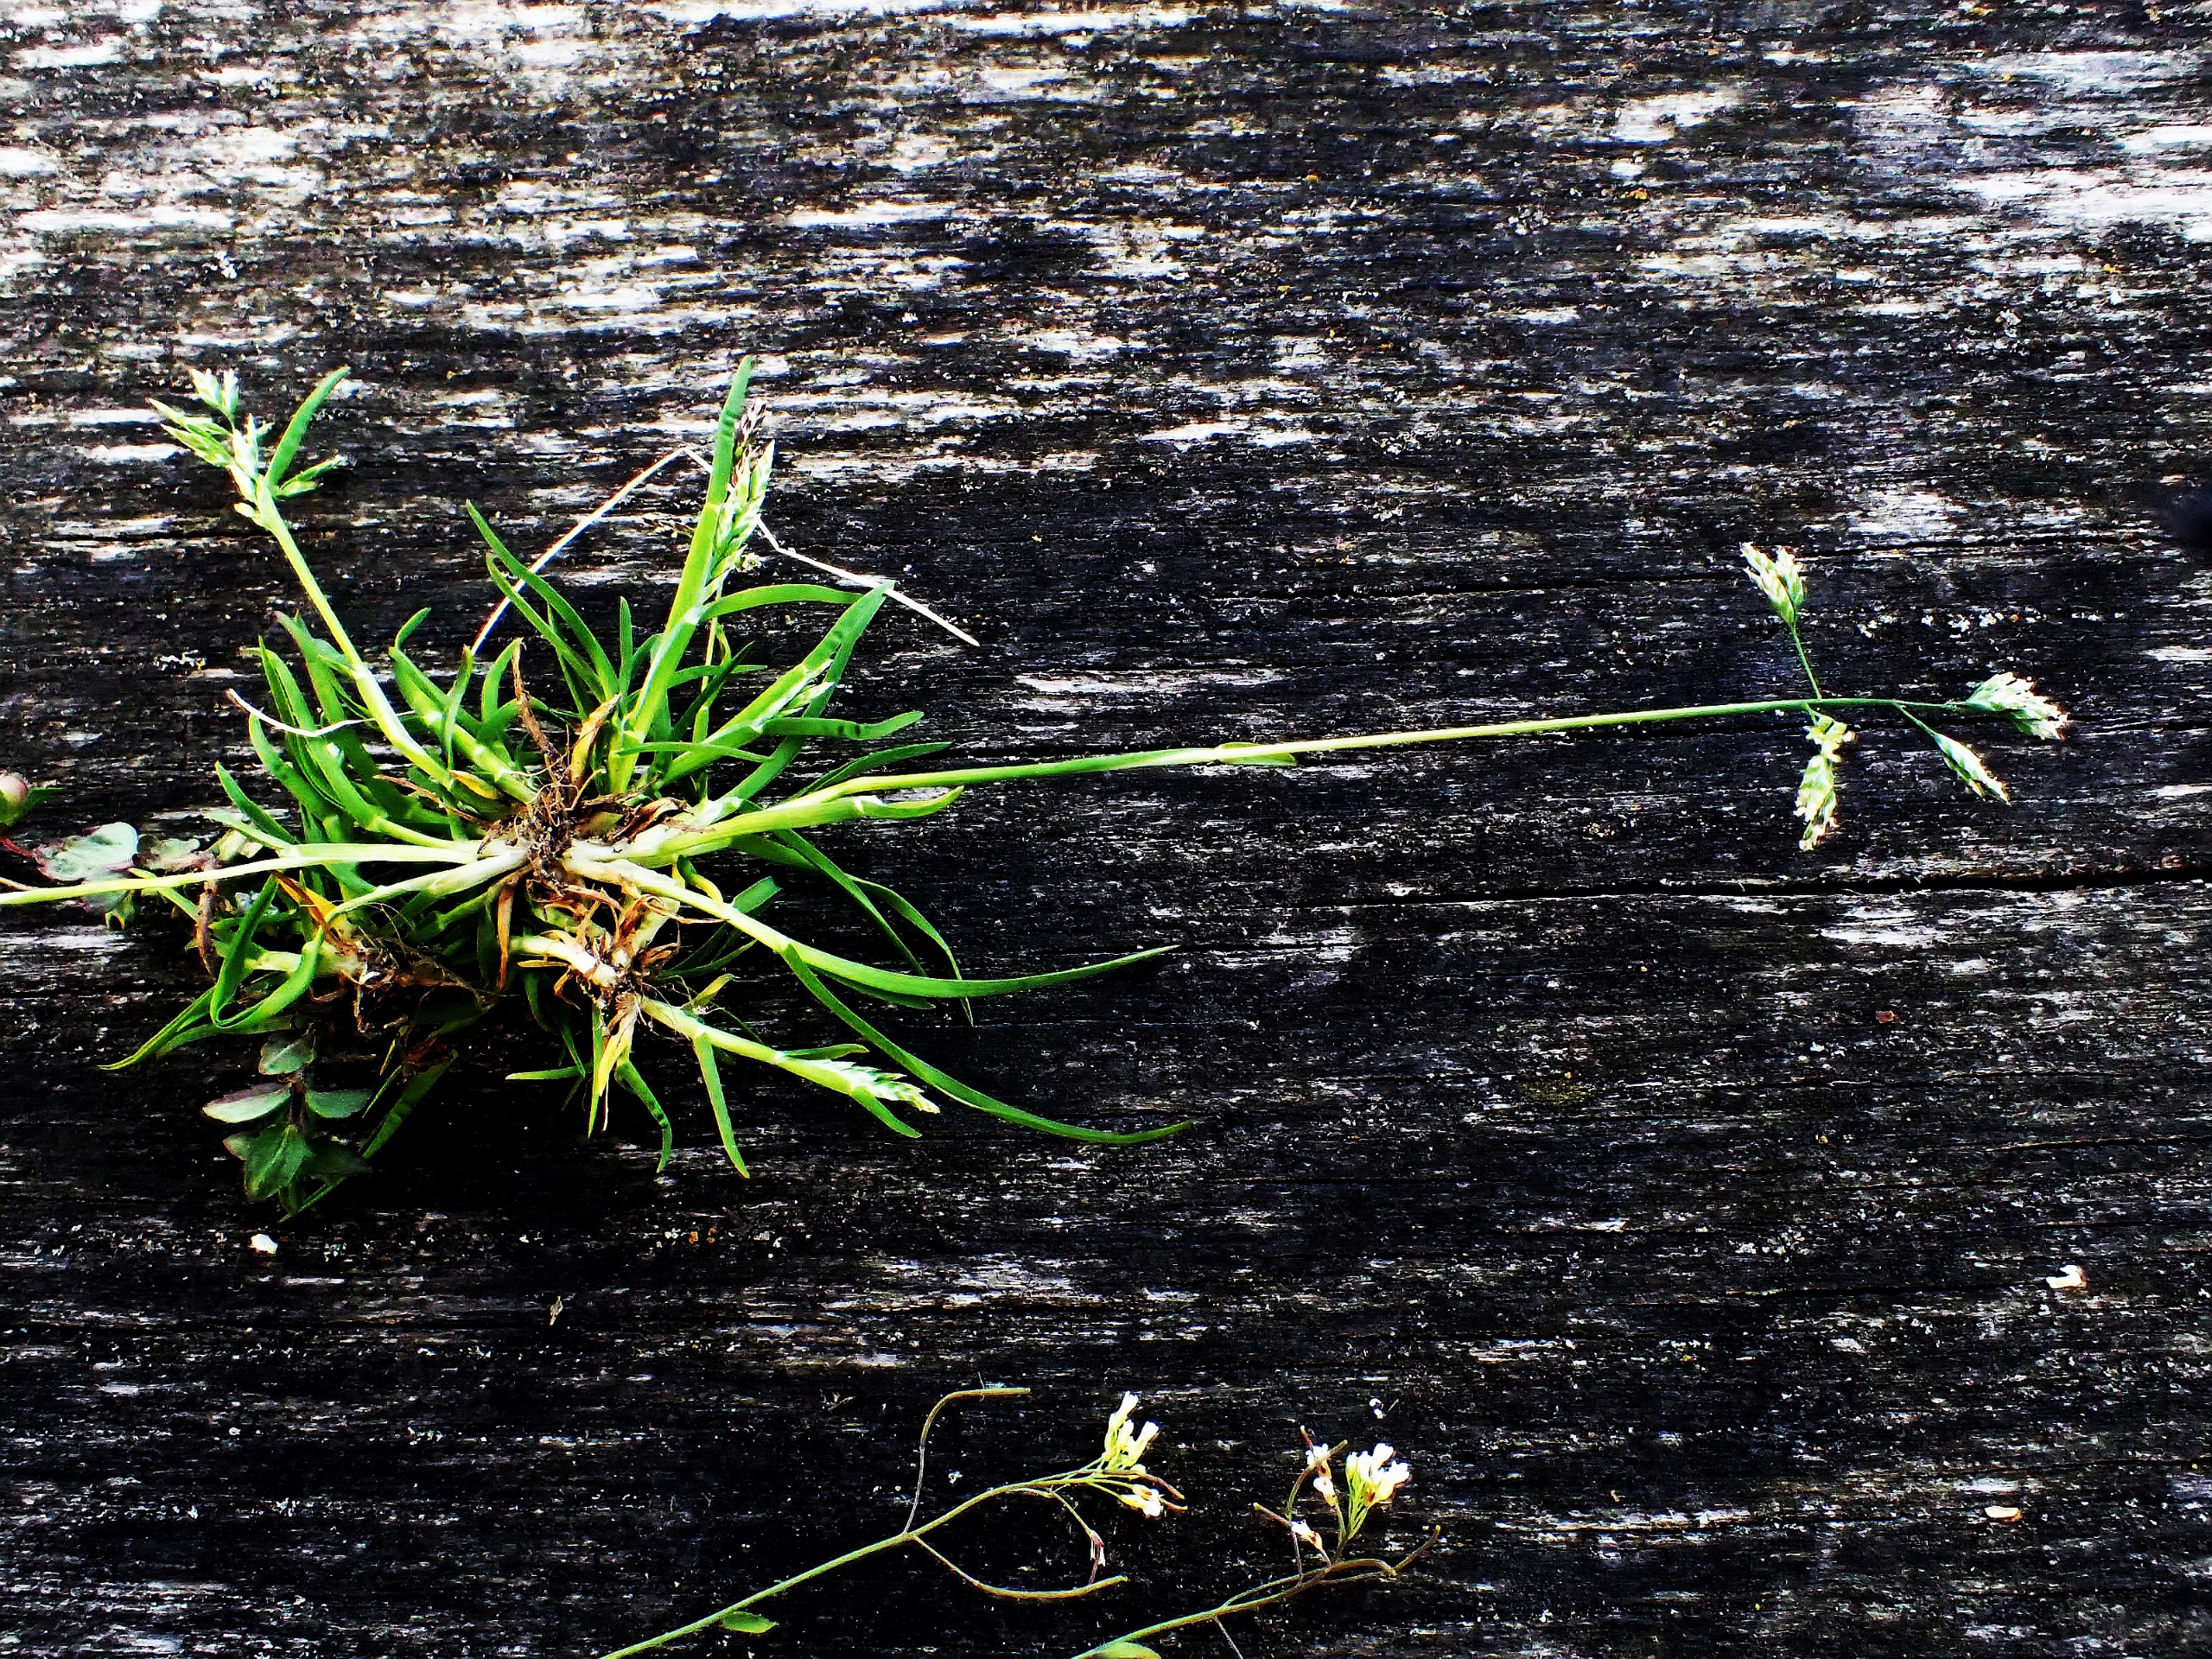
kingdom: Plantae
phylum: Tracheophyta
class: Liliopsida
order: Poales
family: Poaceae
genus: Poa
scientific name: Poa annua
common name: Enårig rapgræs
